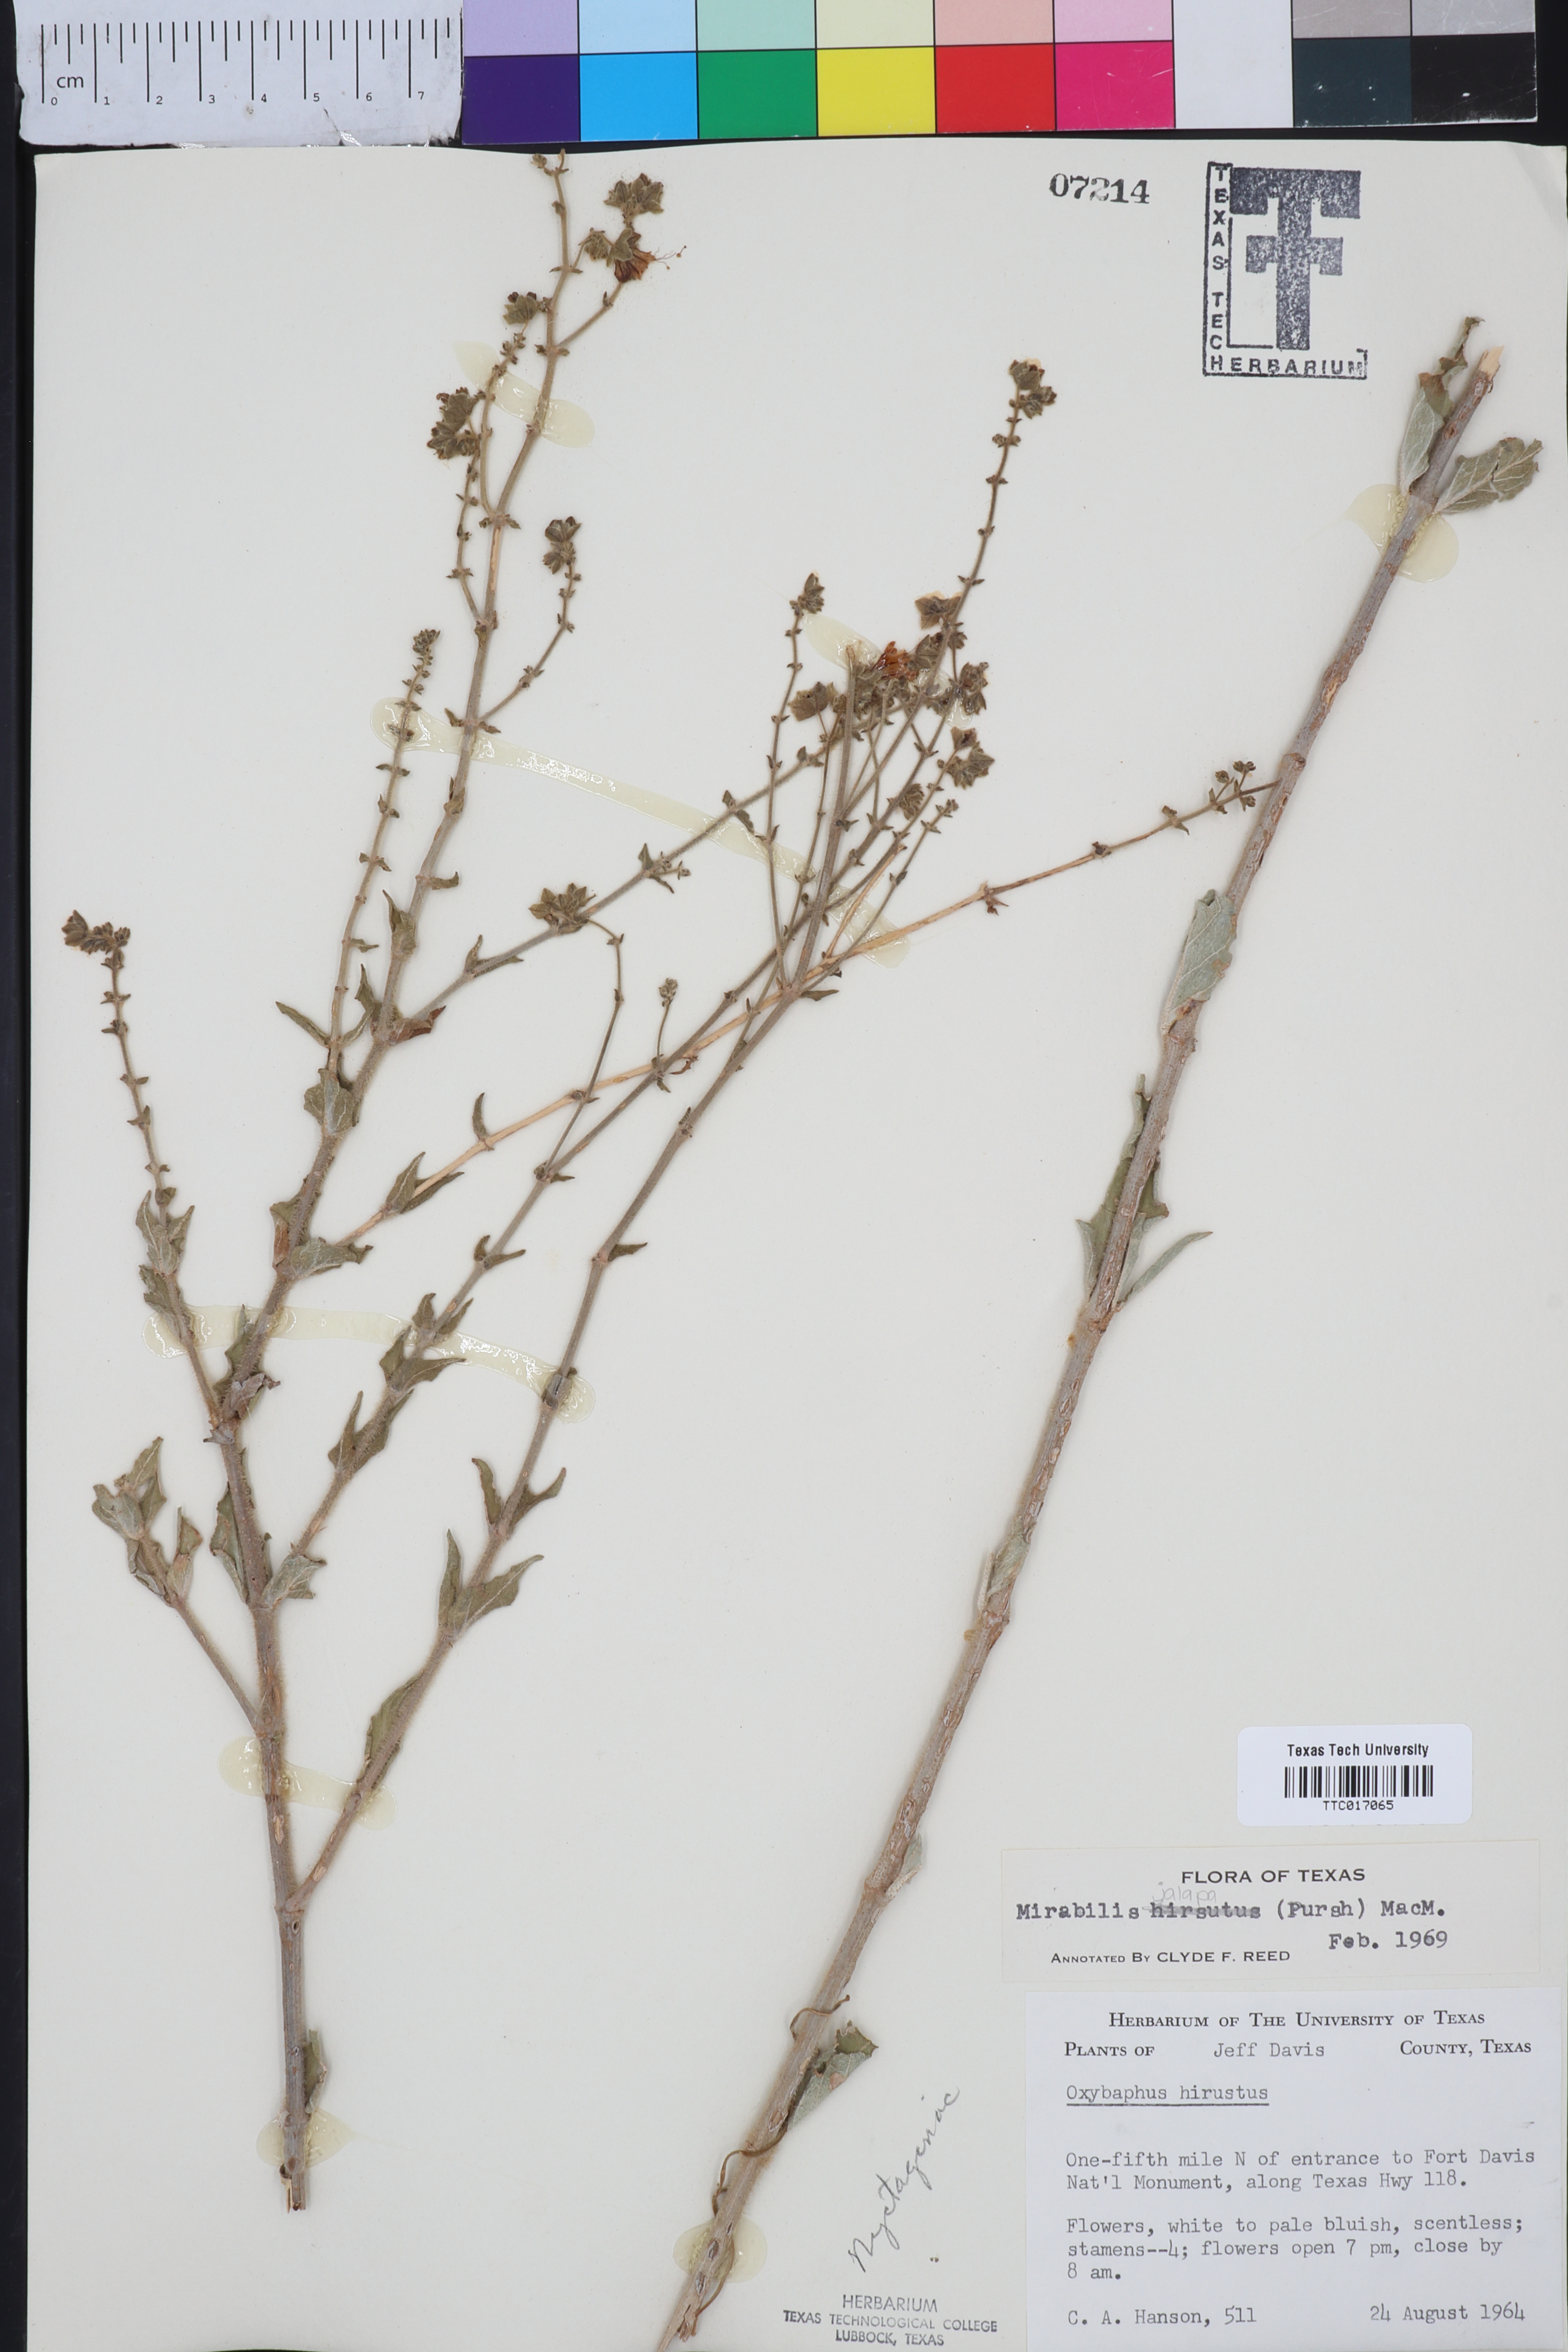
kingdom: Plantae
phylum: Tracheophyta
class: Magnoliopsida
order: Caryophyllales
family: Nyctaginaceae
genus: Mirabilis
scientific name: Mirabilis hirsuta
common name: Hairy four-o'clock
